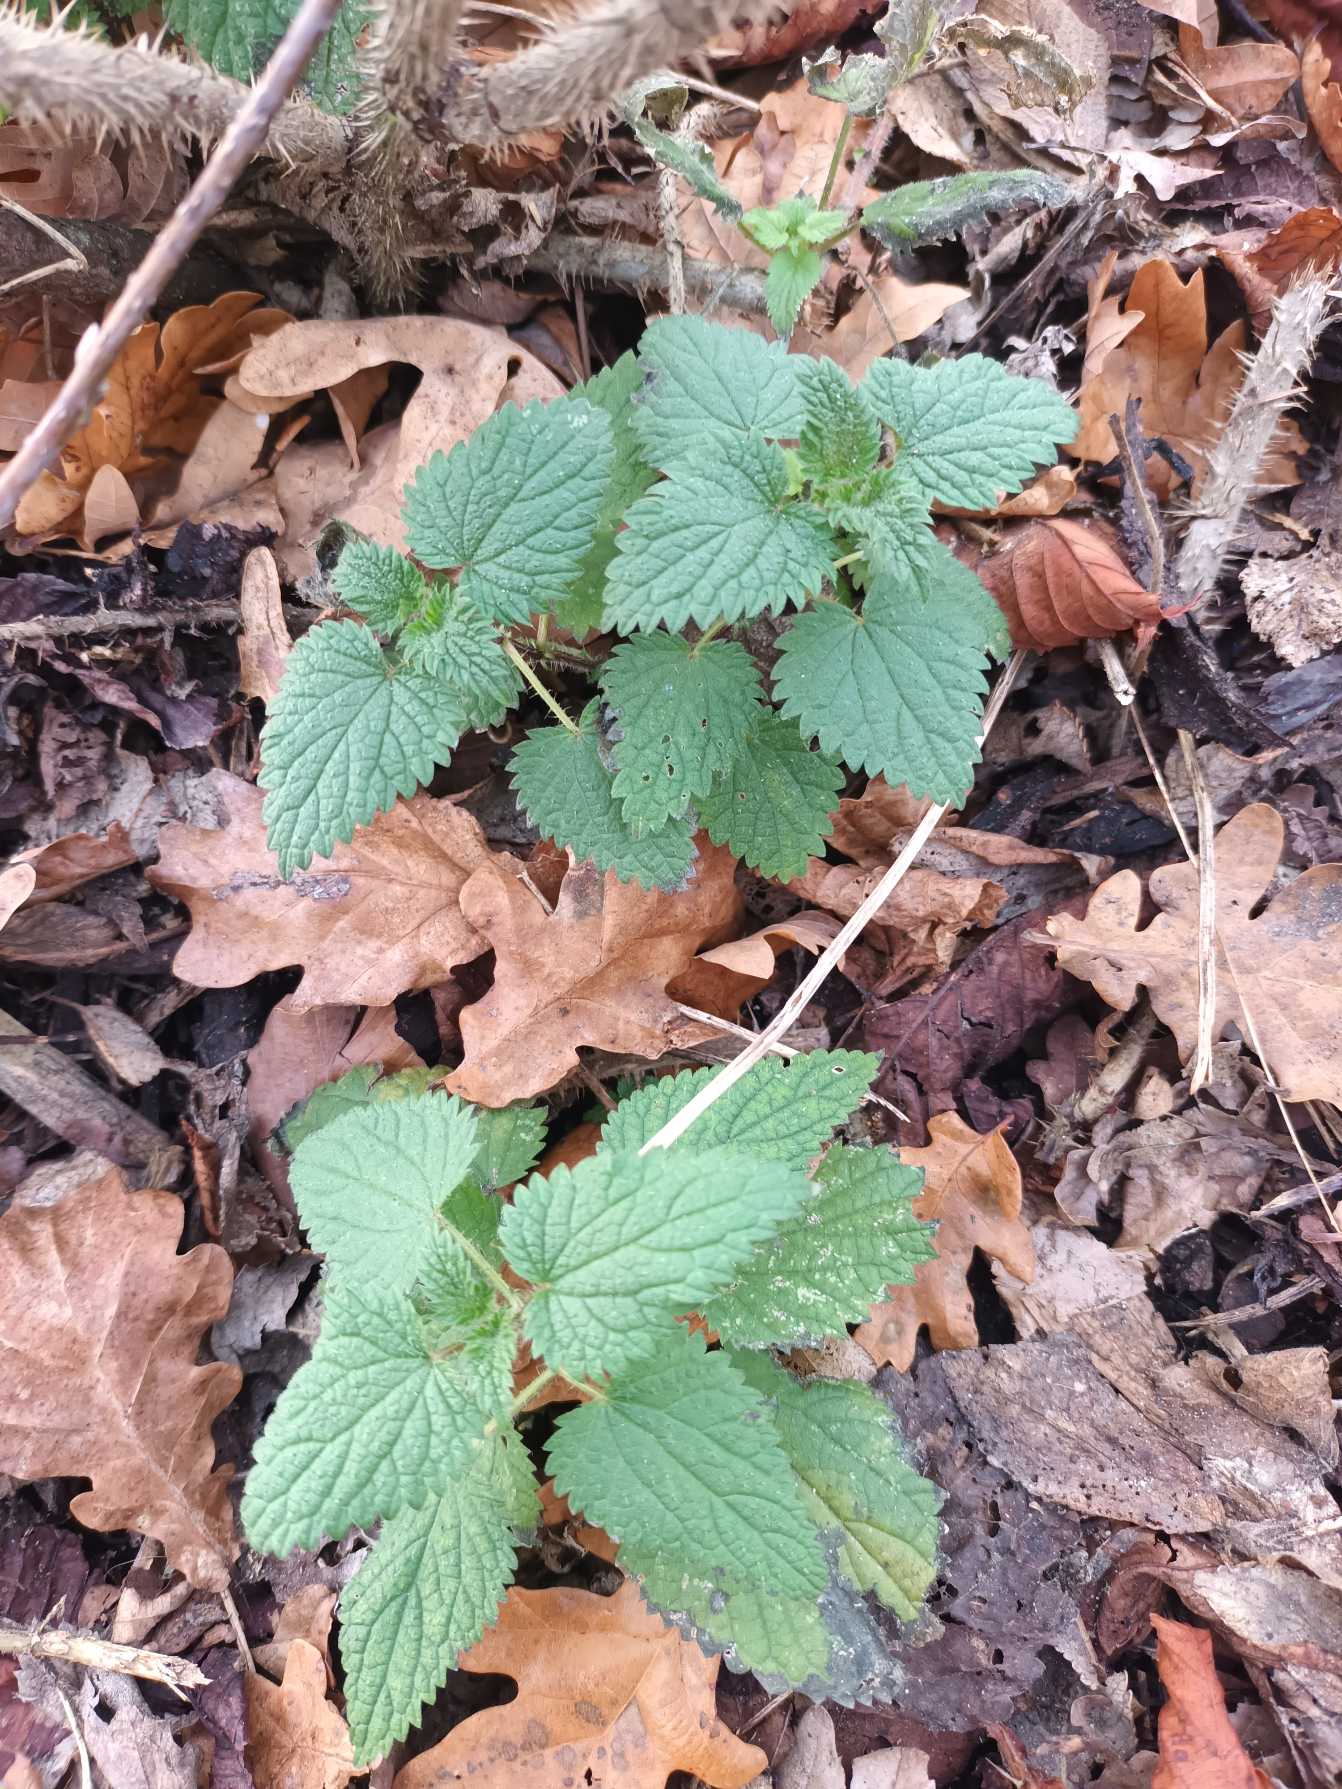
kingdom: Plantae
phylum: Tracheophyta
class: Magnoliopsida
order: Rosales
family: Urticaceae
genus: Urtica
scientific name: Urtica dioica
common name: Stor nælde
